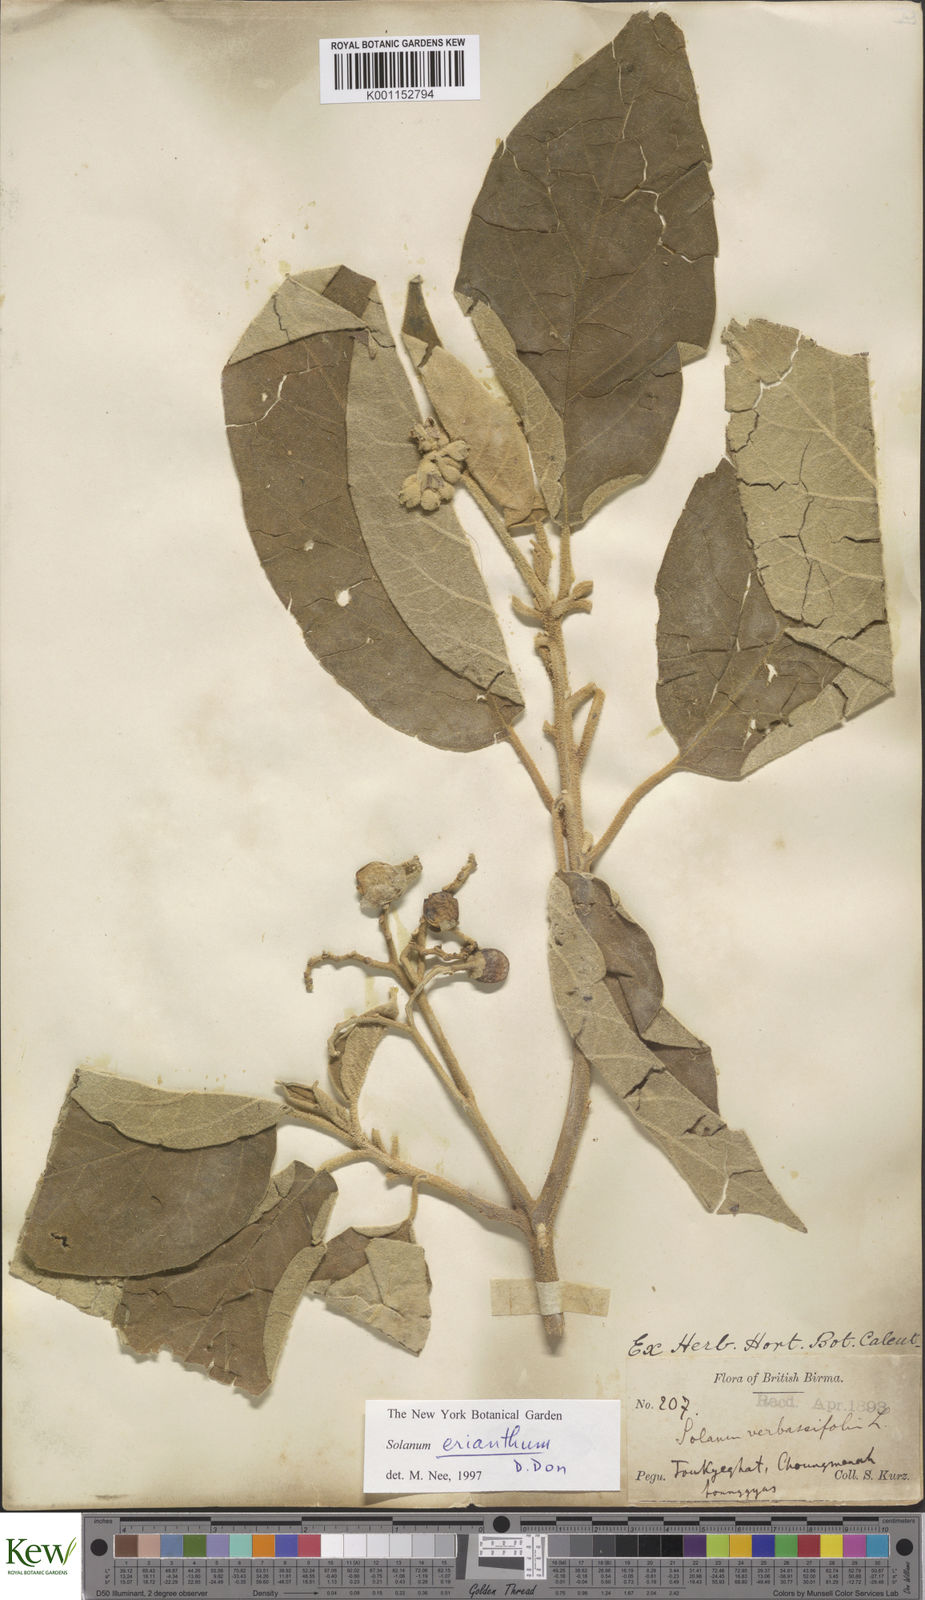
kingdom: Plantae
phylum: Tracheophyta
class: Magnoliopsida
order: Solanales
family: Solanaceae
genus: Solanum
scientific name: Solanum erianthum
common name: Tobacco-tree
